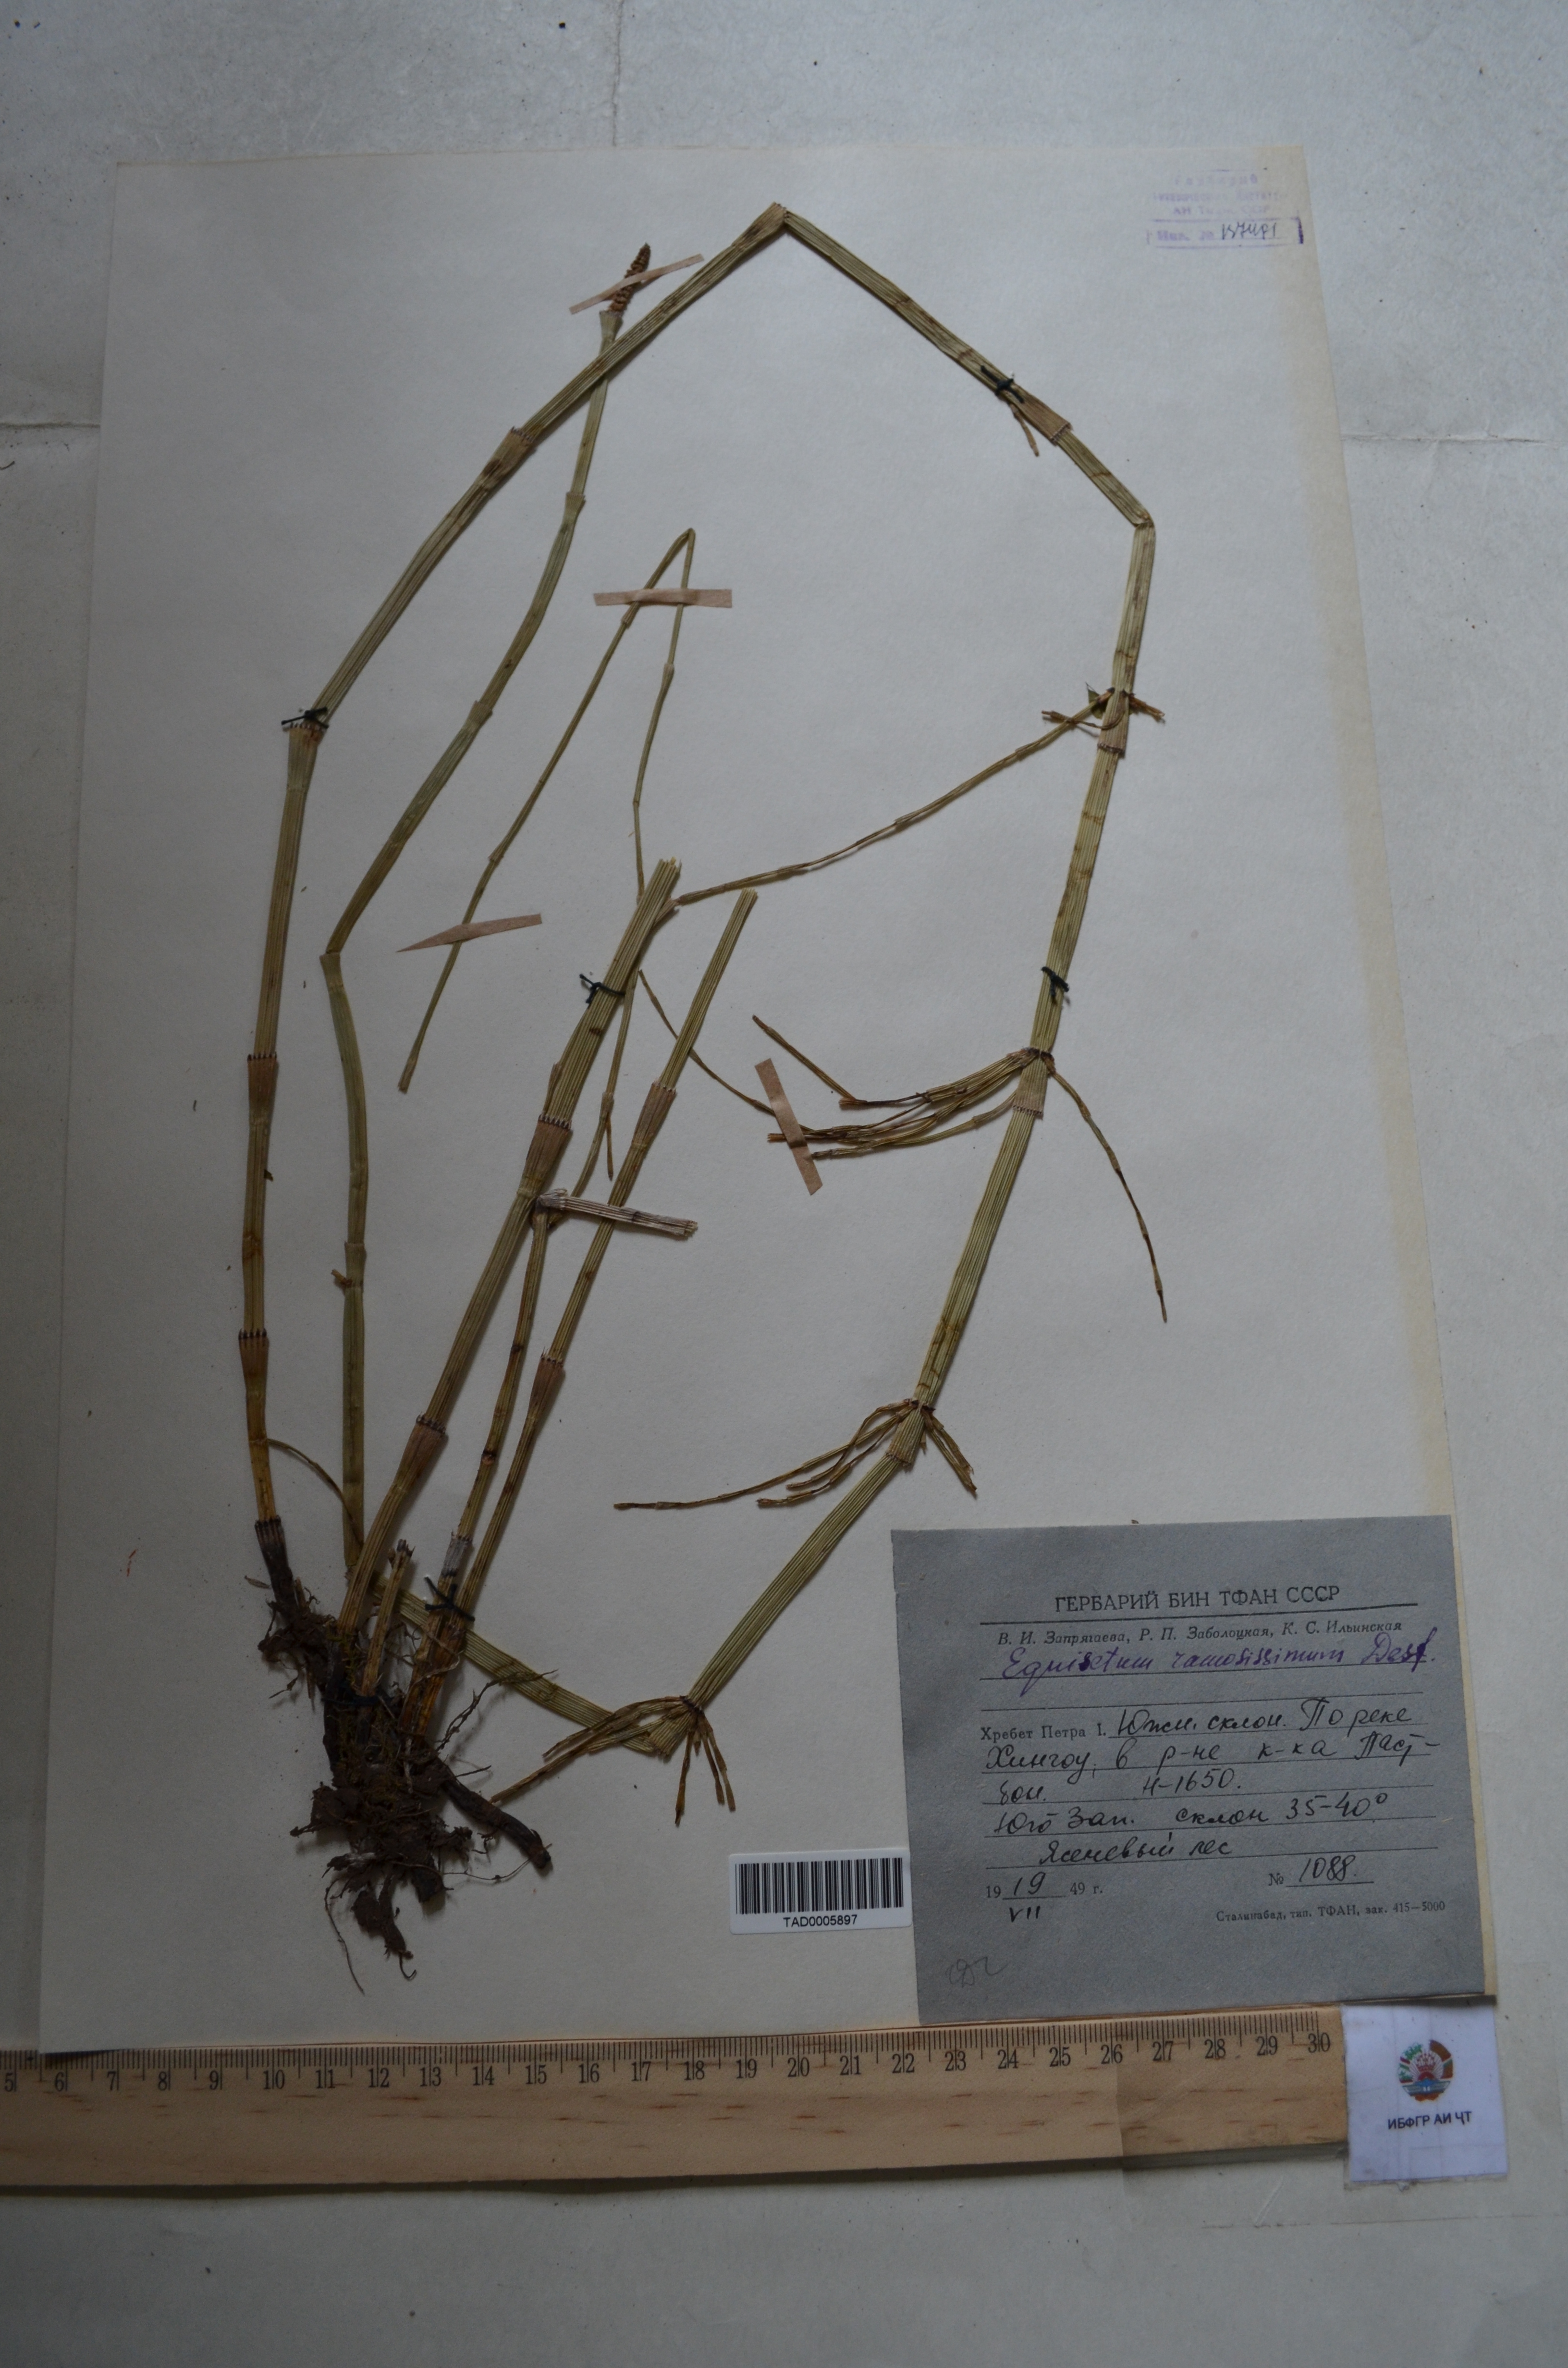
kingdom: Plantae
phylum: Tracheophyta
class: Polypodiopsida
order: Equisetales
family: Equisetaceae
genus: Equisetum
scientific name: Equisetum ramosissimum
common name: Branched horsetail
